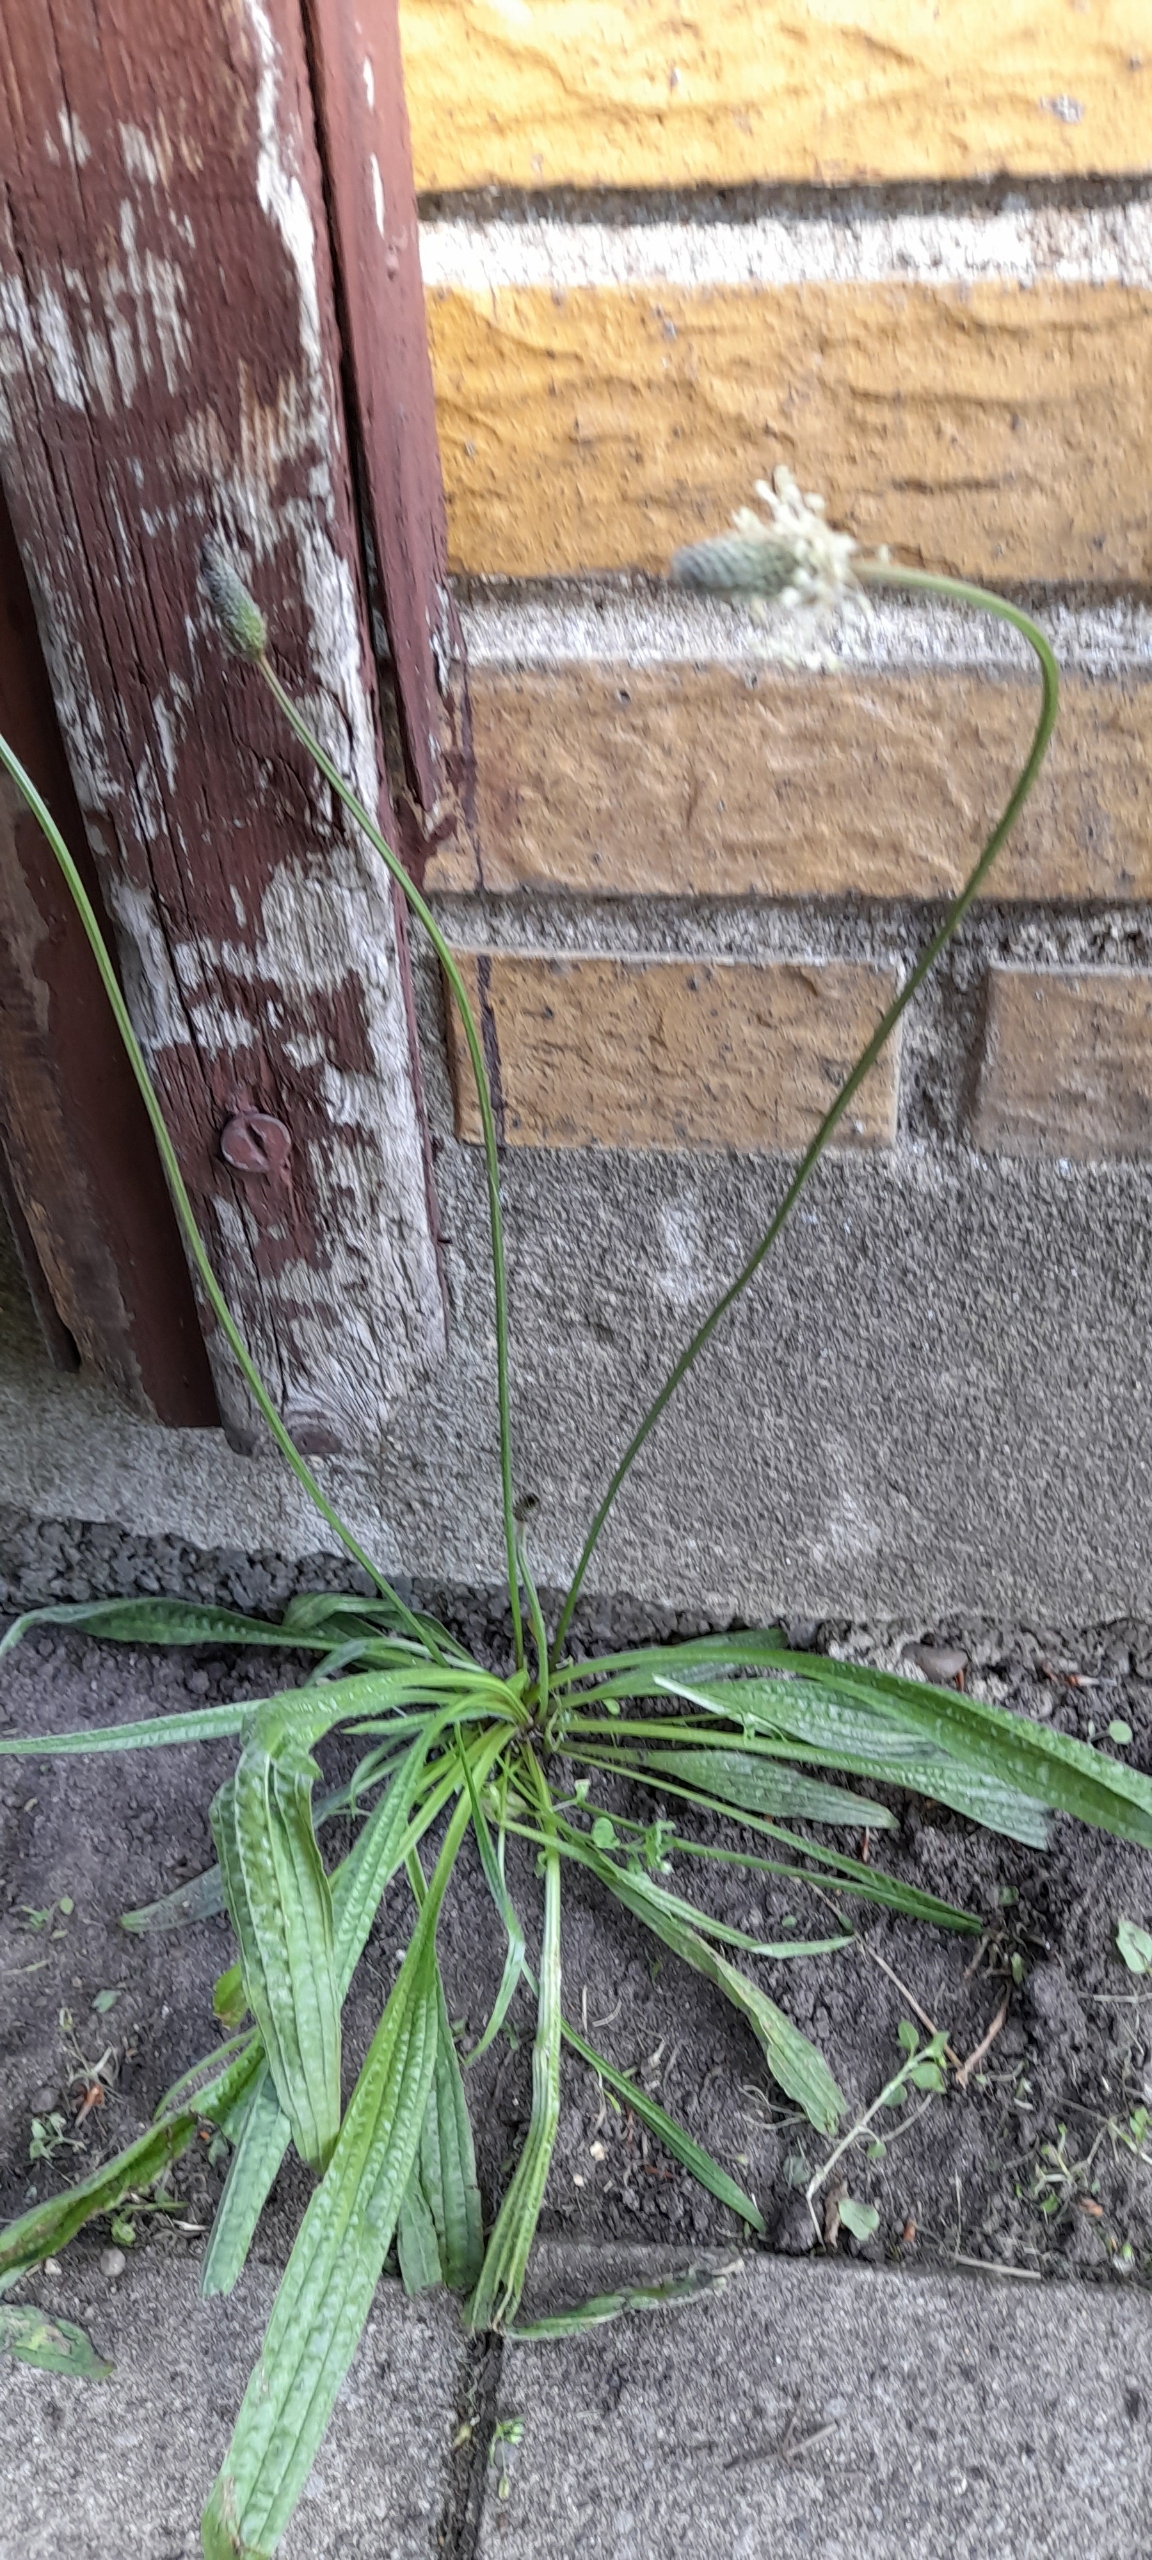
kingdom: Plantae
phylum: Tracheophyta
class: Magnoliopsida
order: Lamiales
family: Plantaginaceae
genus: Plantago
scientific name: Plantago lanceolata
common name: Lancet-vejbred
